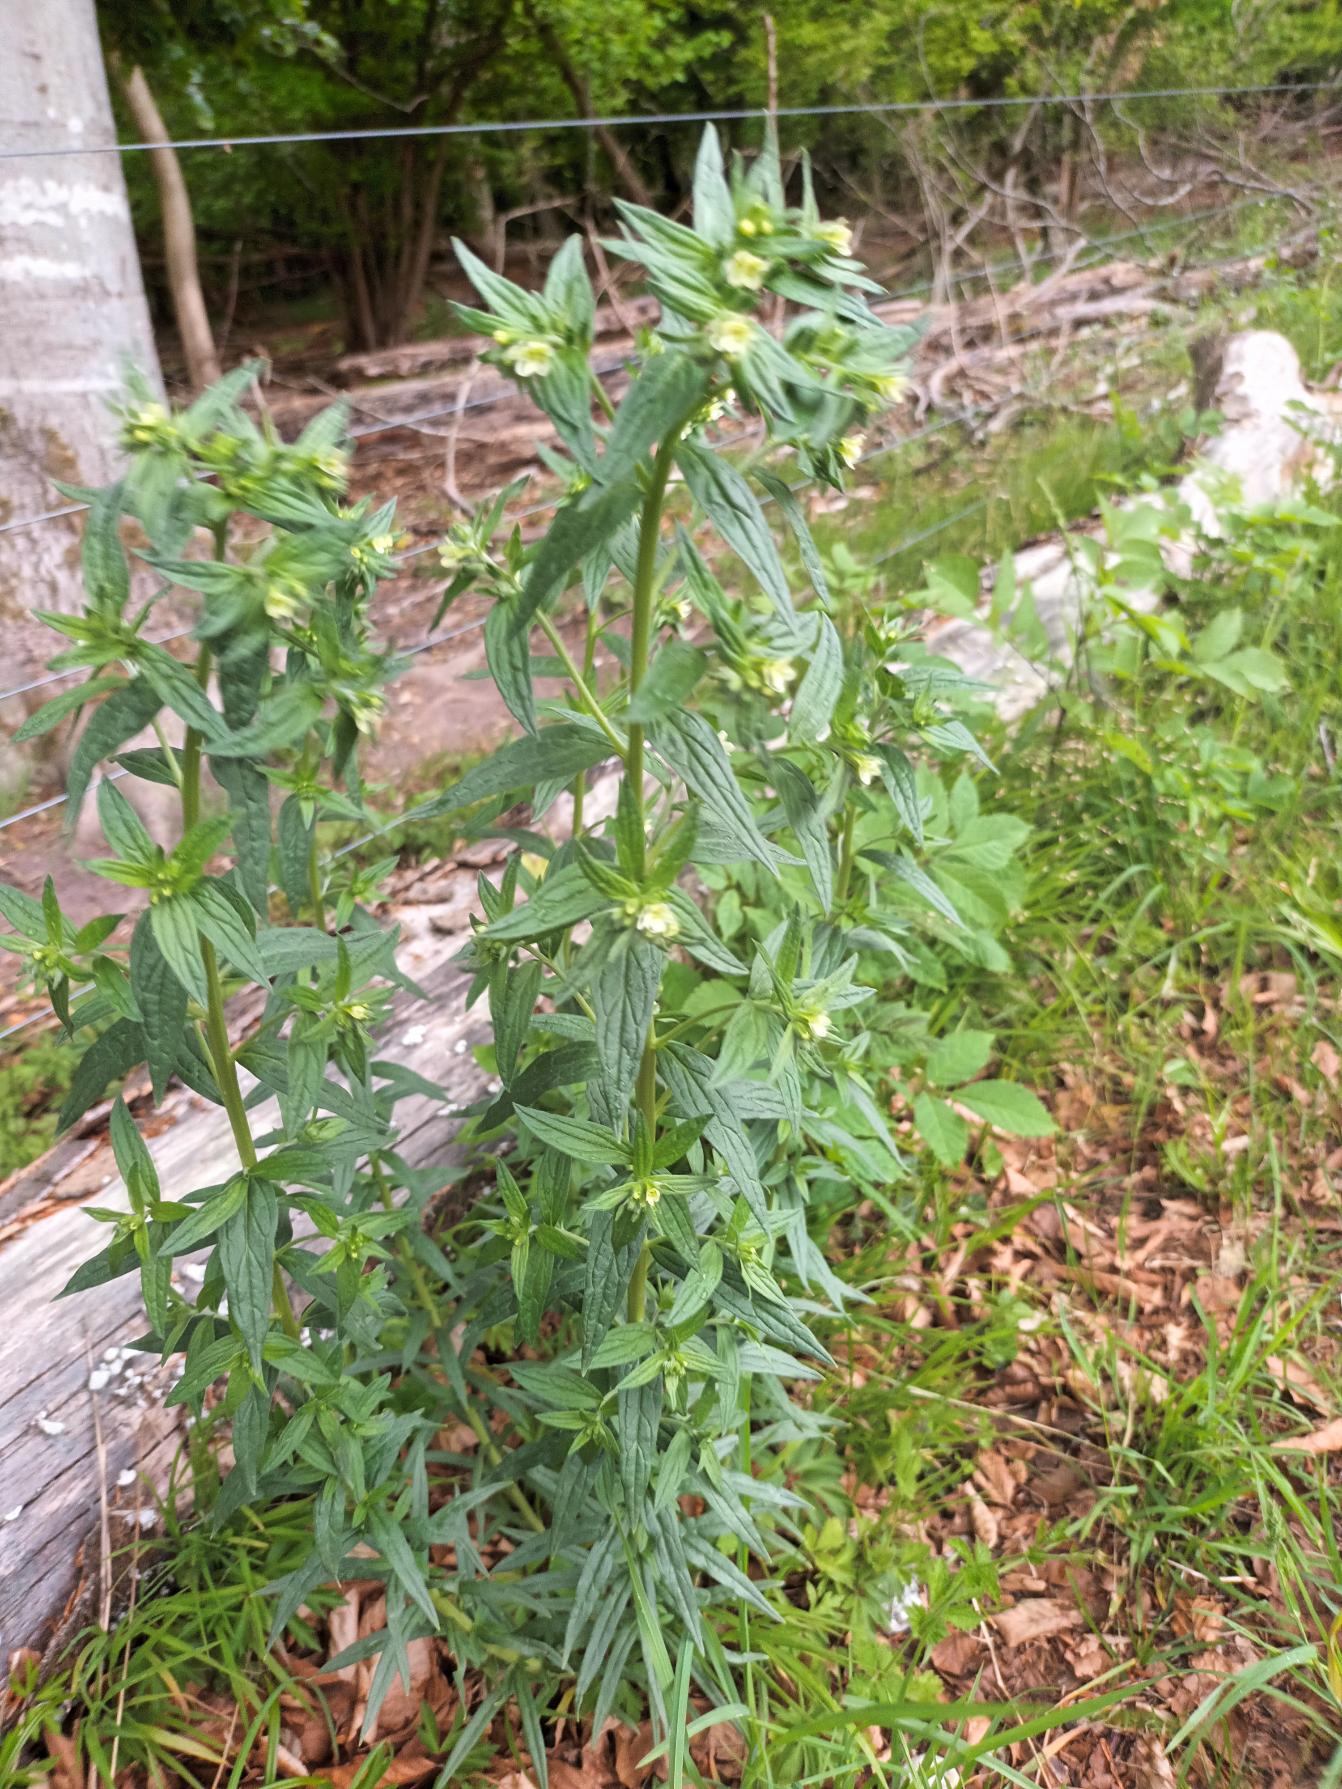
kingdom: Plantae
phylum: Tracheophyta
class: Magnoliopsida
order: Boraginales
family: Boraginaceae
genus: Lithospermum
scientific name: Lithospermum officinale
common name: Læge-stenfrø
